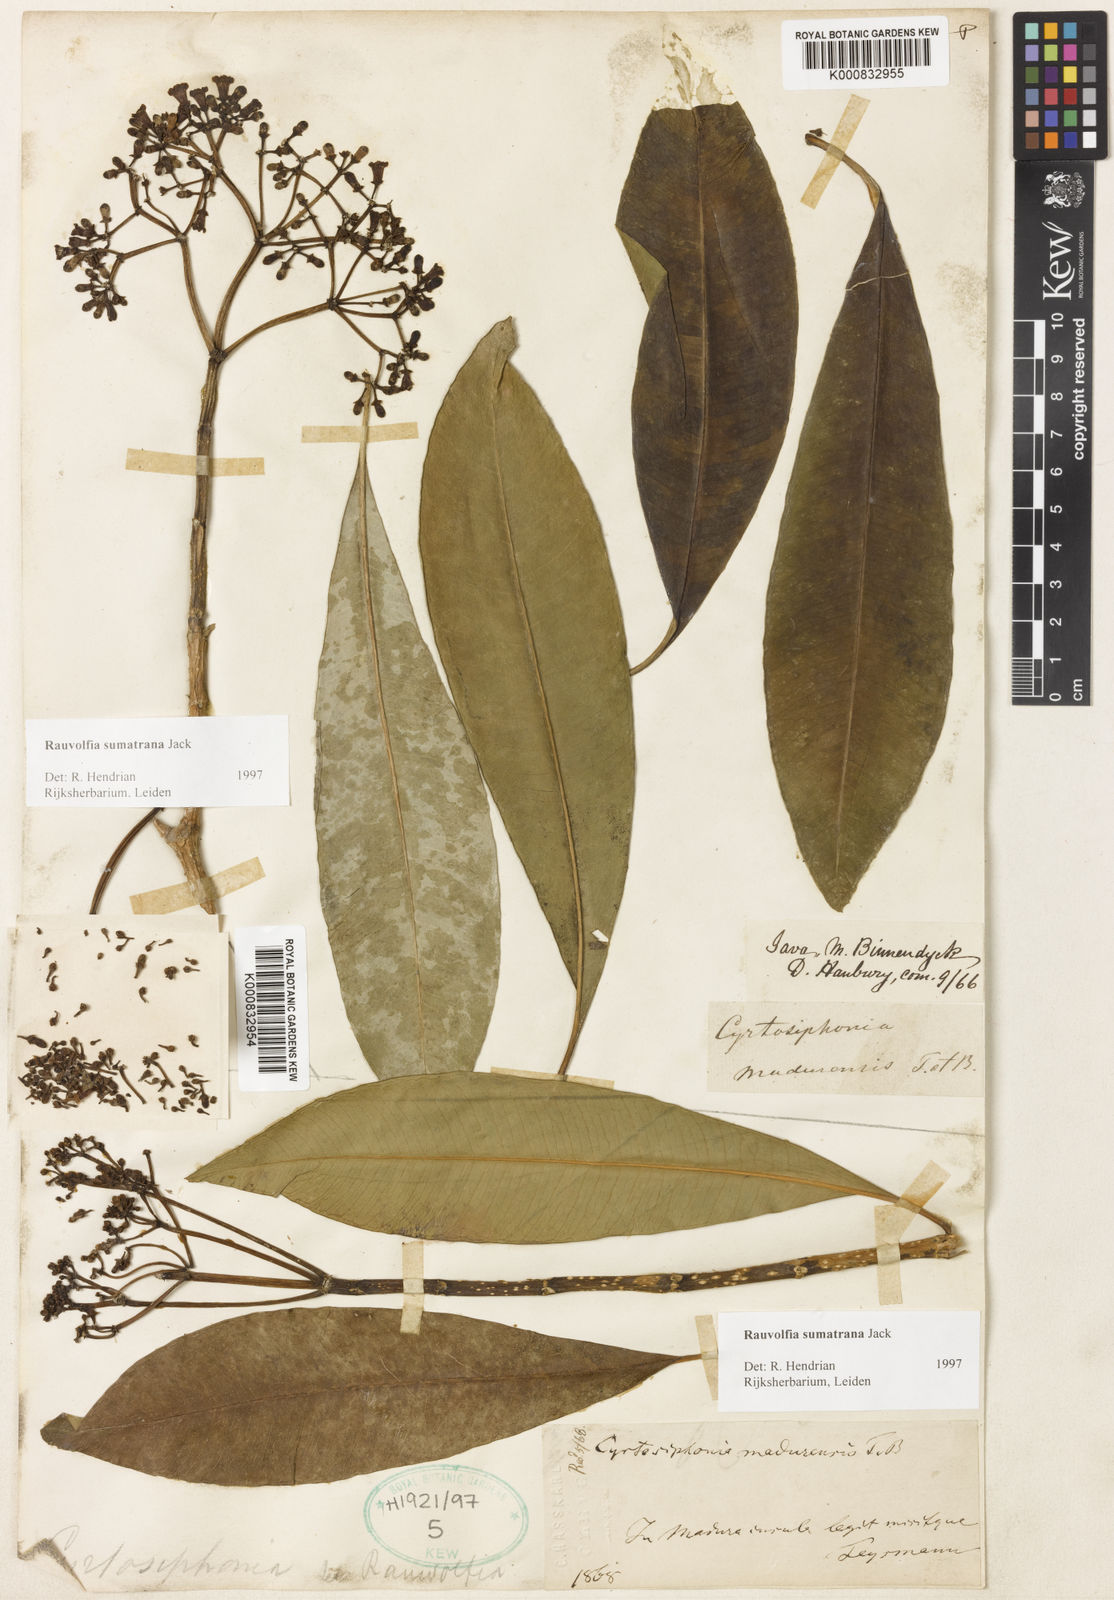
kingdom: Plantae
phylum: Tracheophyta
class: Magnoliopsida
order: Gentianales
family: Apocynaceae
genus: Rauvolfia
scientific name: Rauvolfia sumatrana
